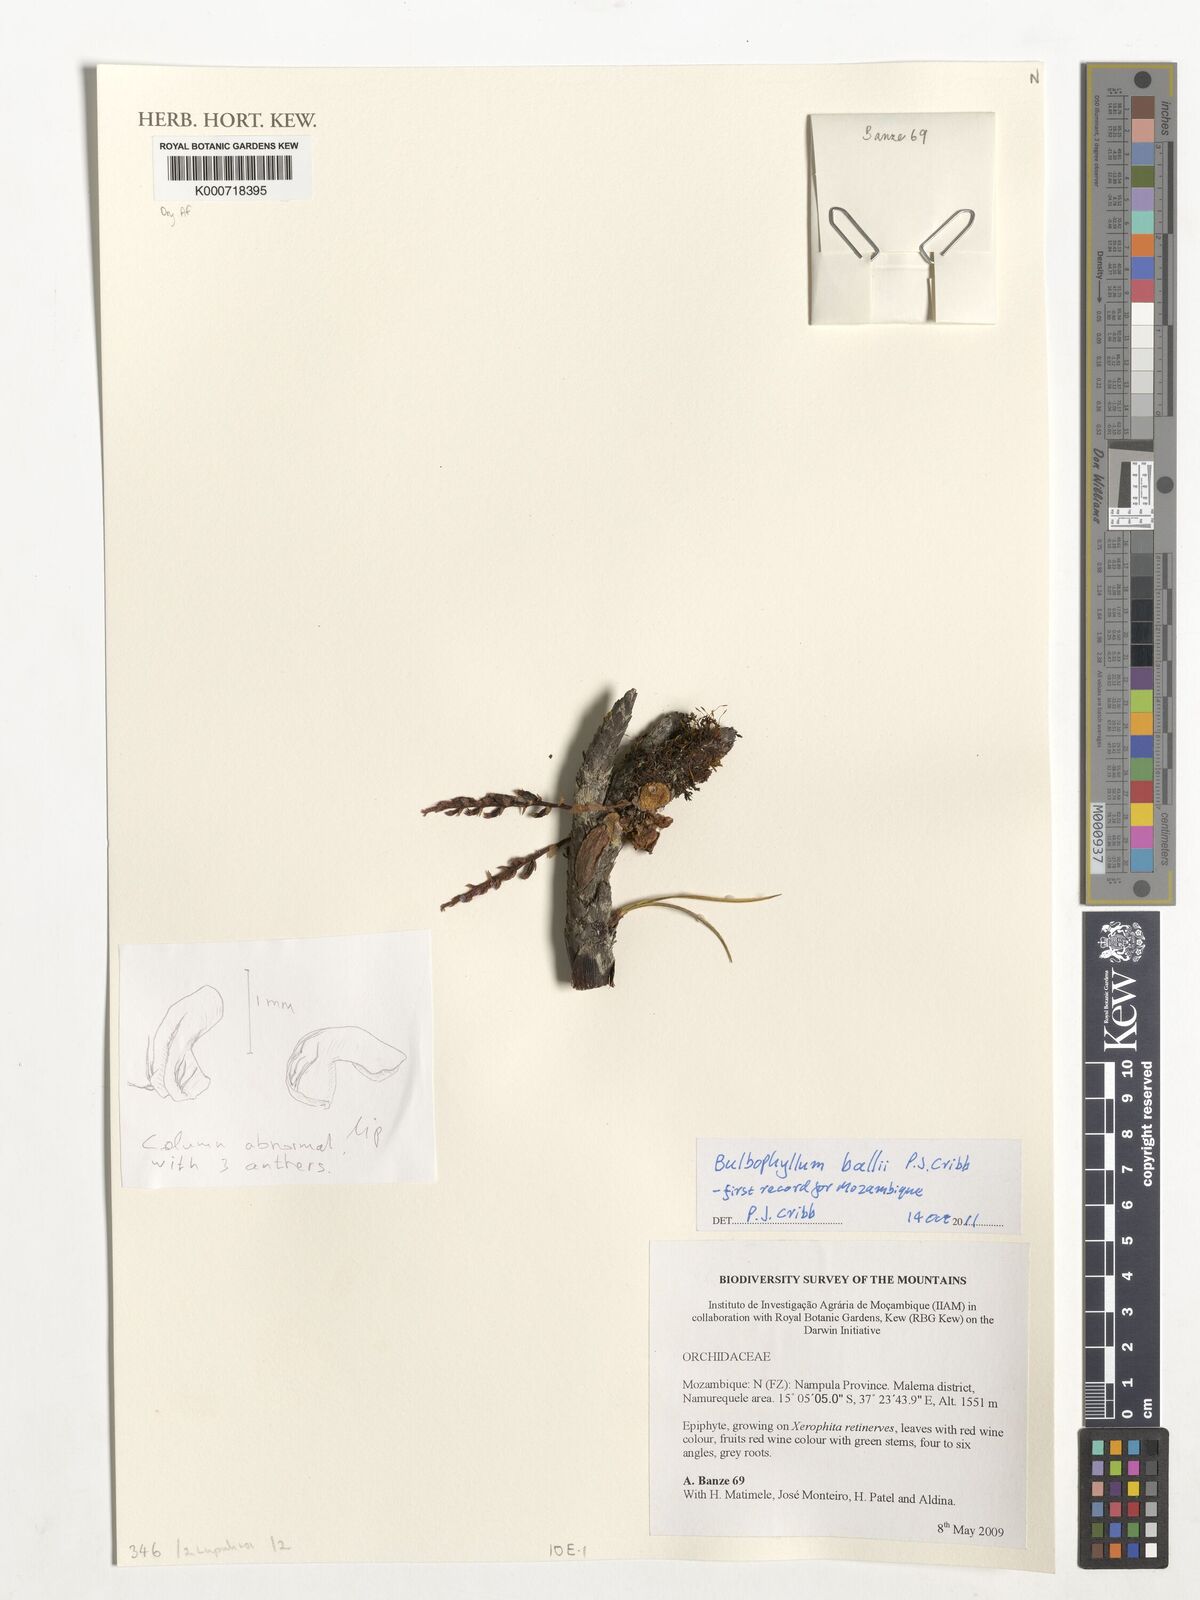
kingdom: Plantae
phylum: Tracheophyta
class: Liliopsida
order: Asparagales
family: Orchidaceae
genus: Bulbophyllum
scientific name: Bulbophyllum ballii
